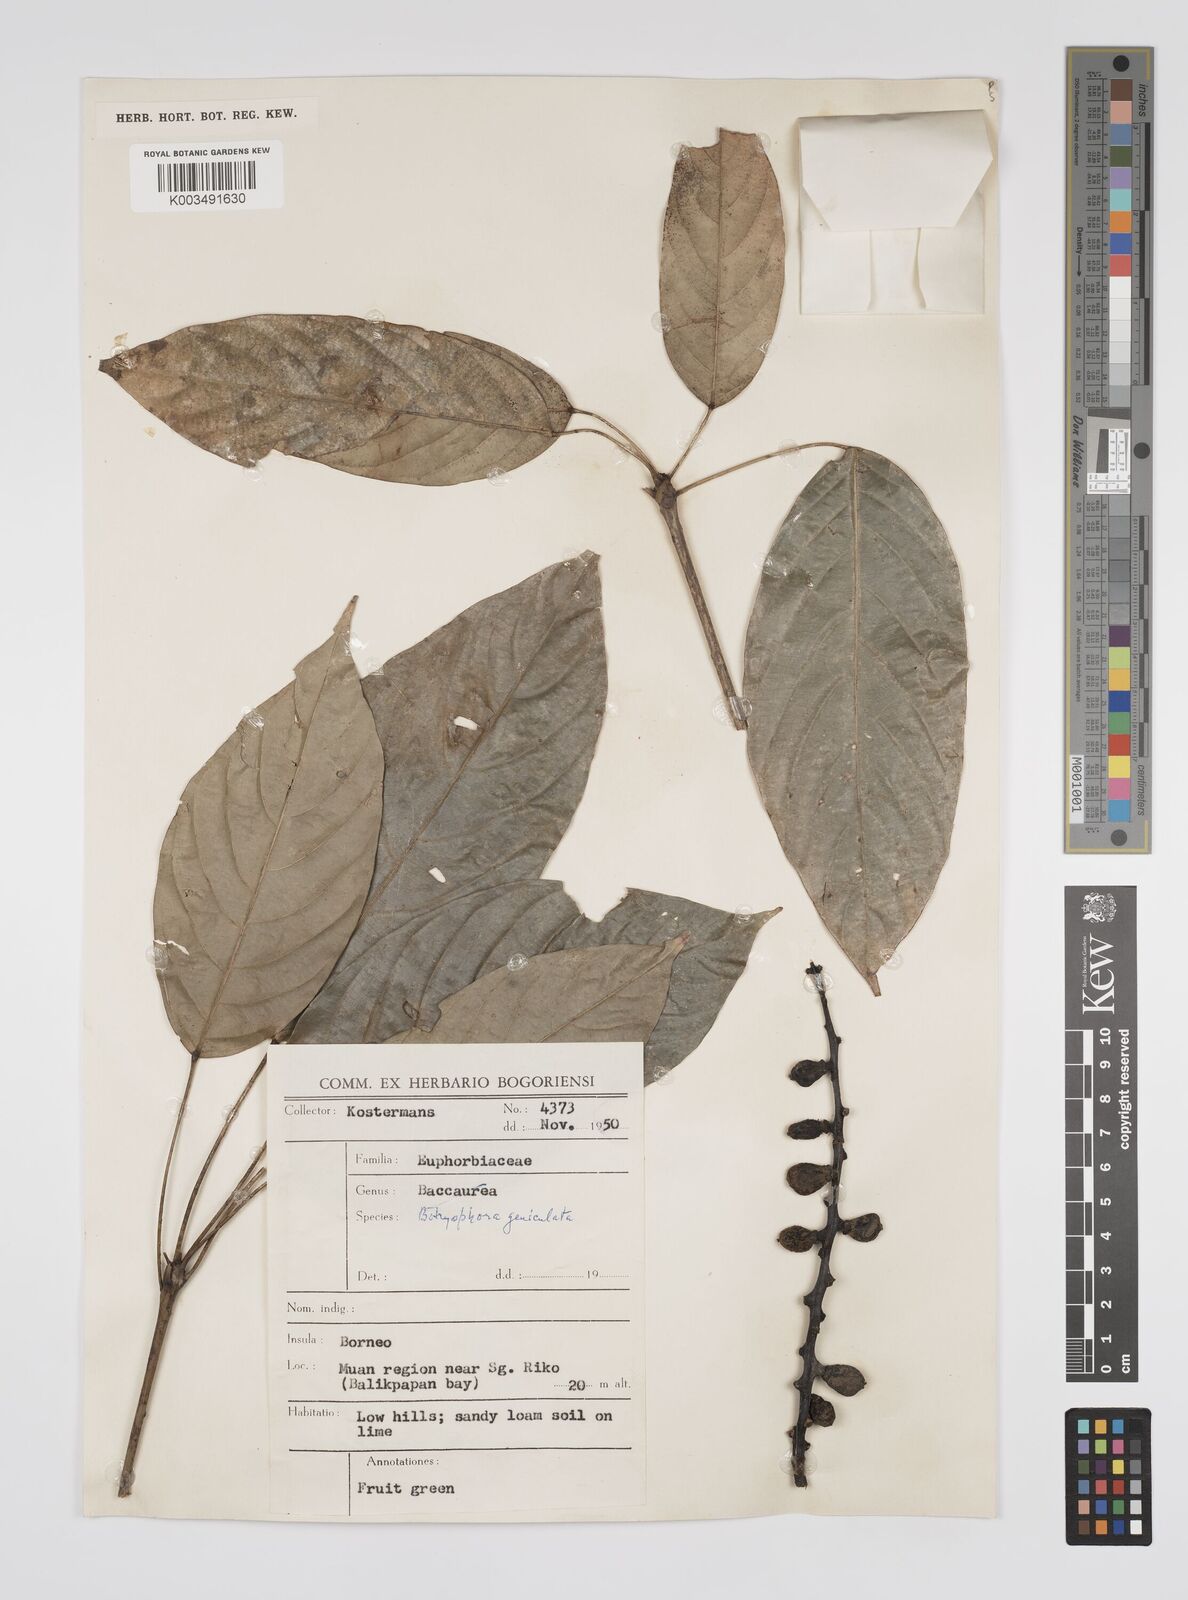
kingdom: Plantae
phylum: Tracheophyta
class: Magnoliopsida
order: Malpighiales
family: Euphorbiaceae
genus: Botryophora
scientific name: Botryophora geniculata
